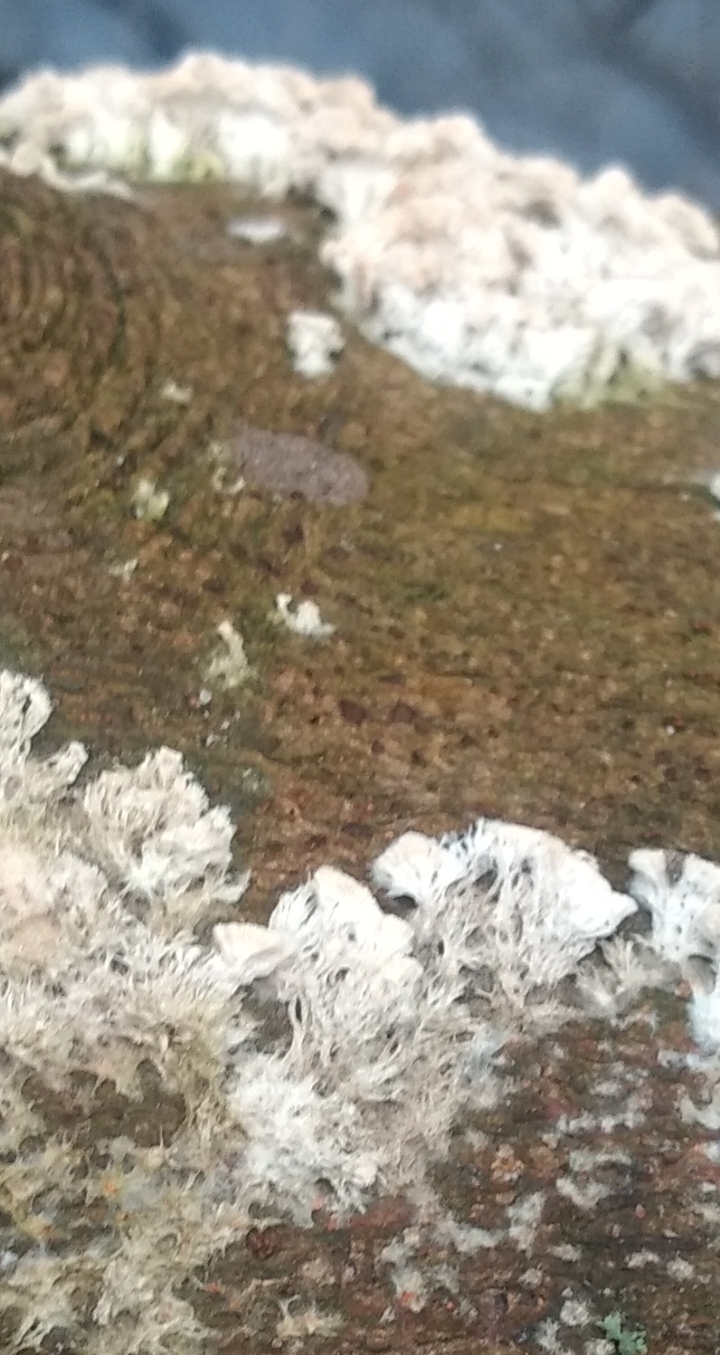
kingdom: Fungi
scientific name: Fungi
